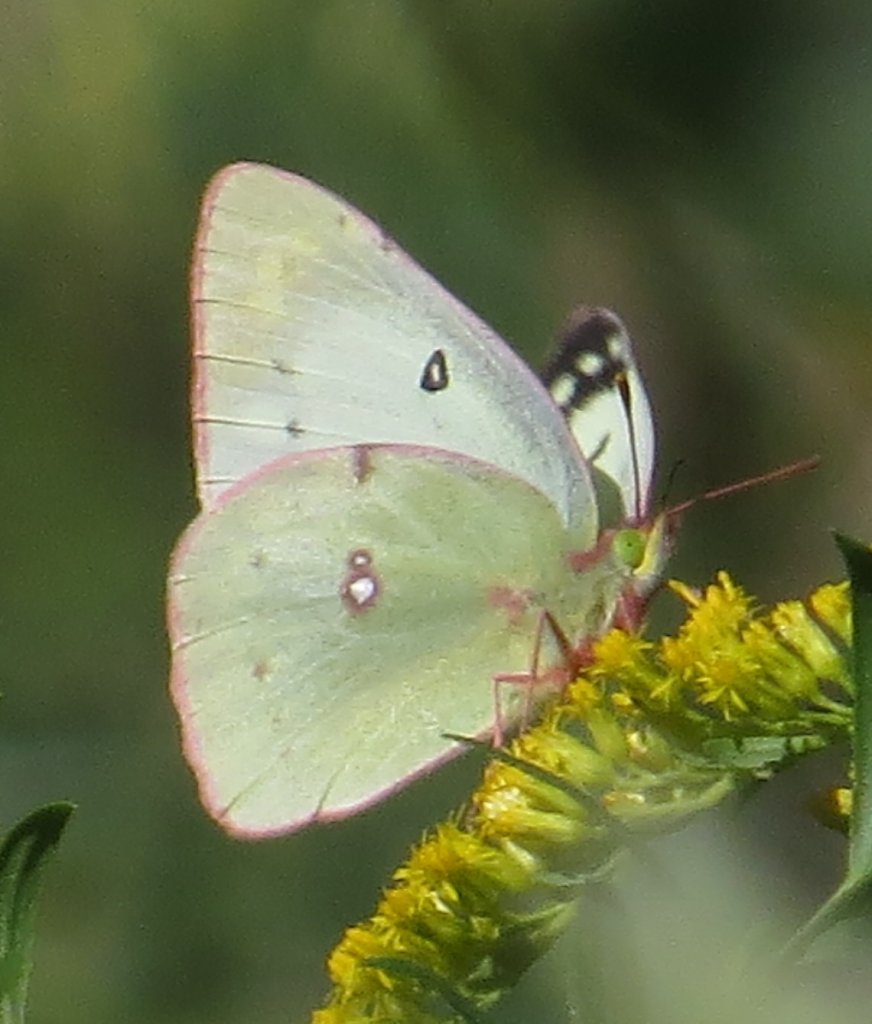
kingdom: Animalia
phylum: Arthropoda
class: Insecta
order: Lepidoptera
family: Pieridae
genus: Colias
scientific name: Colias philodice
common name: Clouded Sulphur
